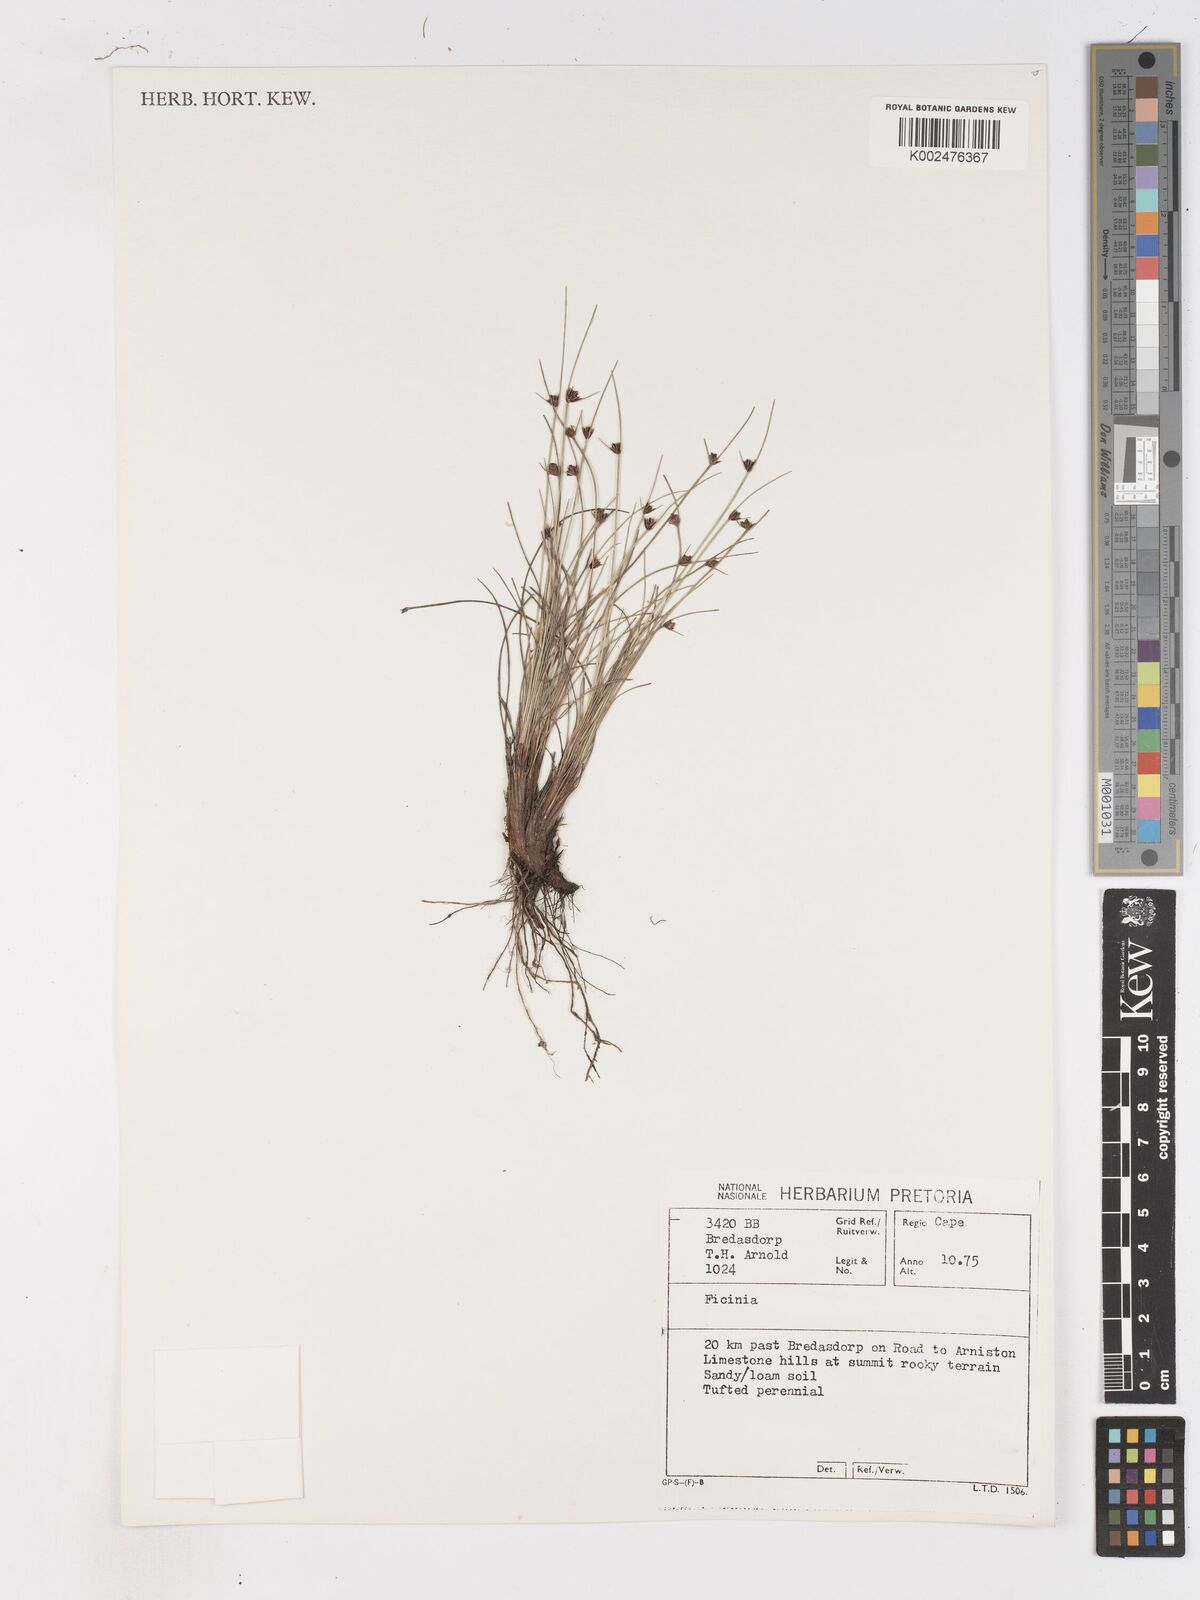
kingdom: Plantae
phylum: Tracheophyta
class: Liliopsida
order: Poales
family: Cyperaceae
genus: Ficinia
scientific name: Ficinia oligantha
